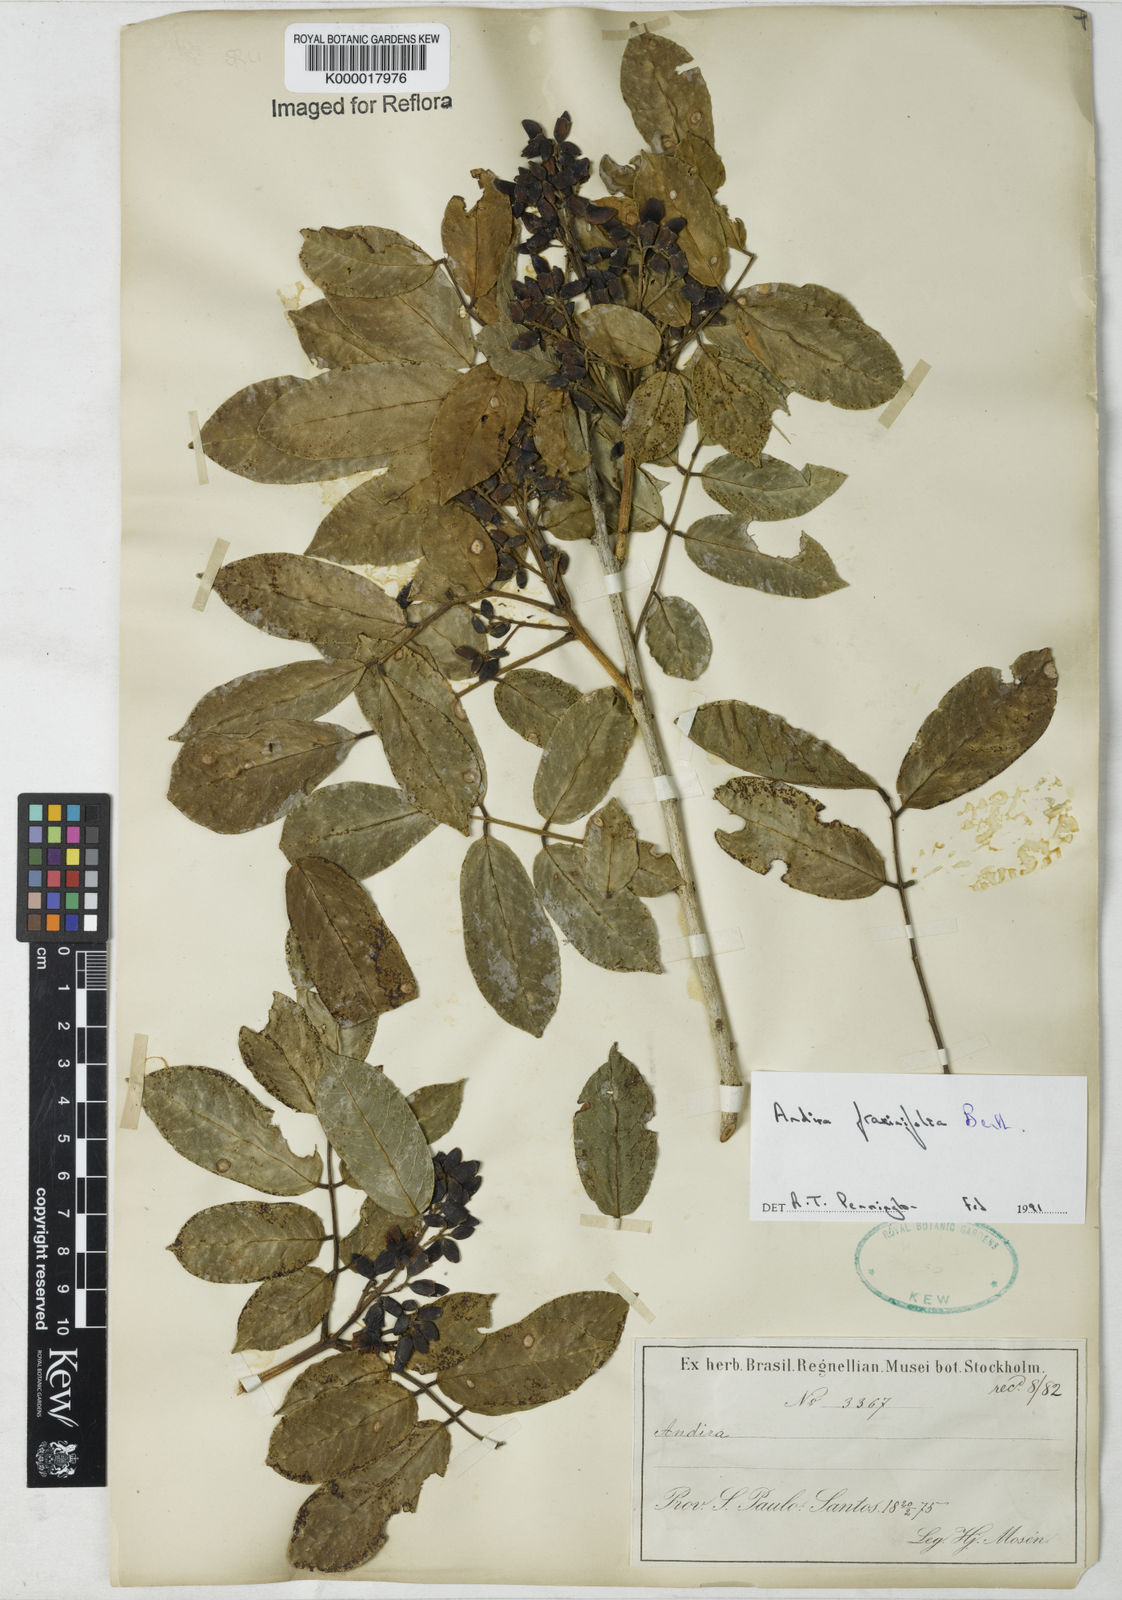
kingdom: Plantae
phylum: Tracheophyta
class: Magnoliopsida
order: Fabales
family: Fabaceae
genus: Andira
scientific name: Andira fraxinifolia
